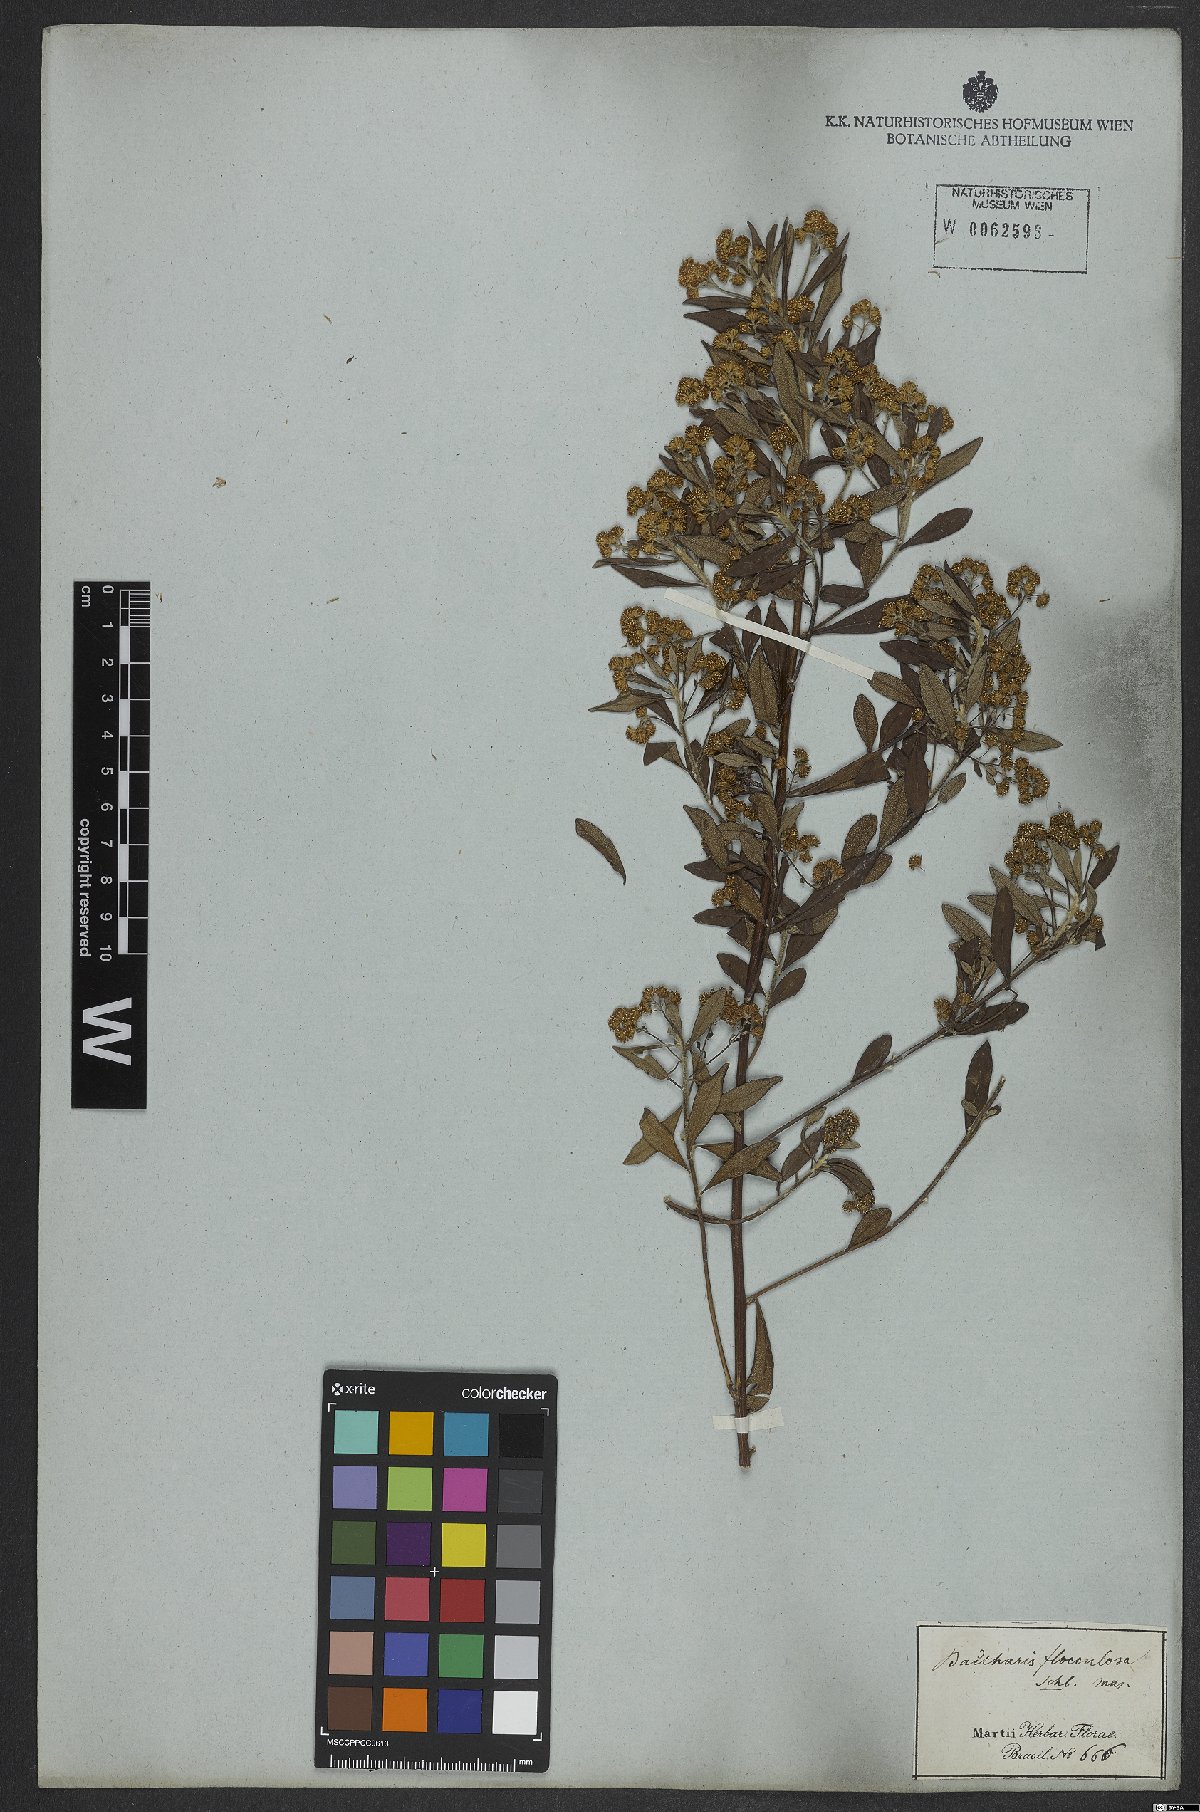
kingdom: Plantae
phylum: Tracheophyta
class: Magnoliopsida
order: Asterales
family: Asteraceae
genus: Baccharis
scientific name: Baccharis calvescens
